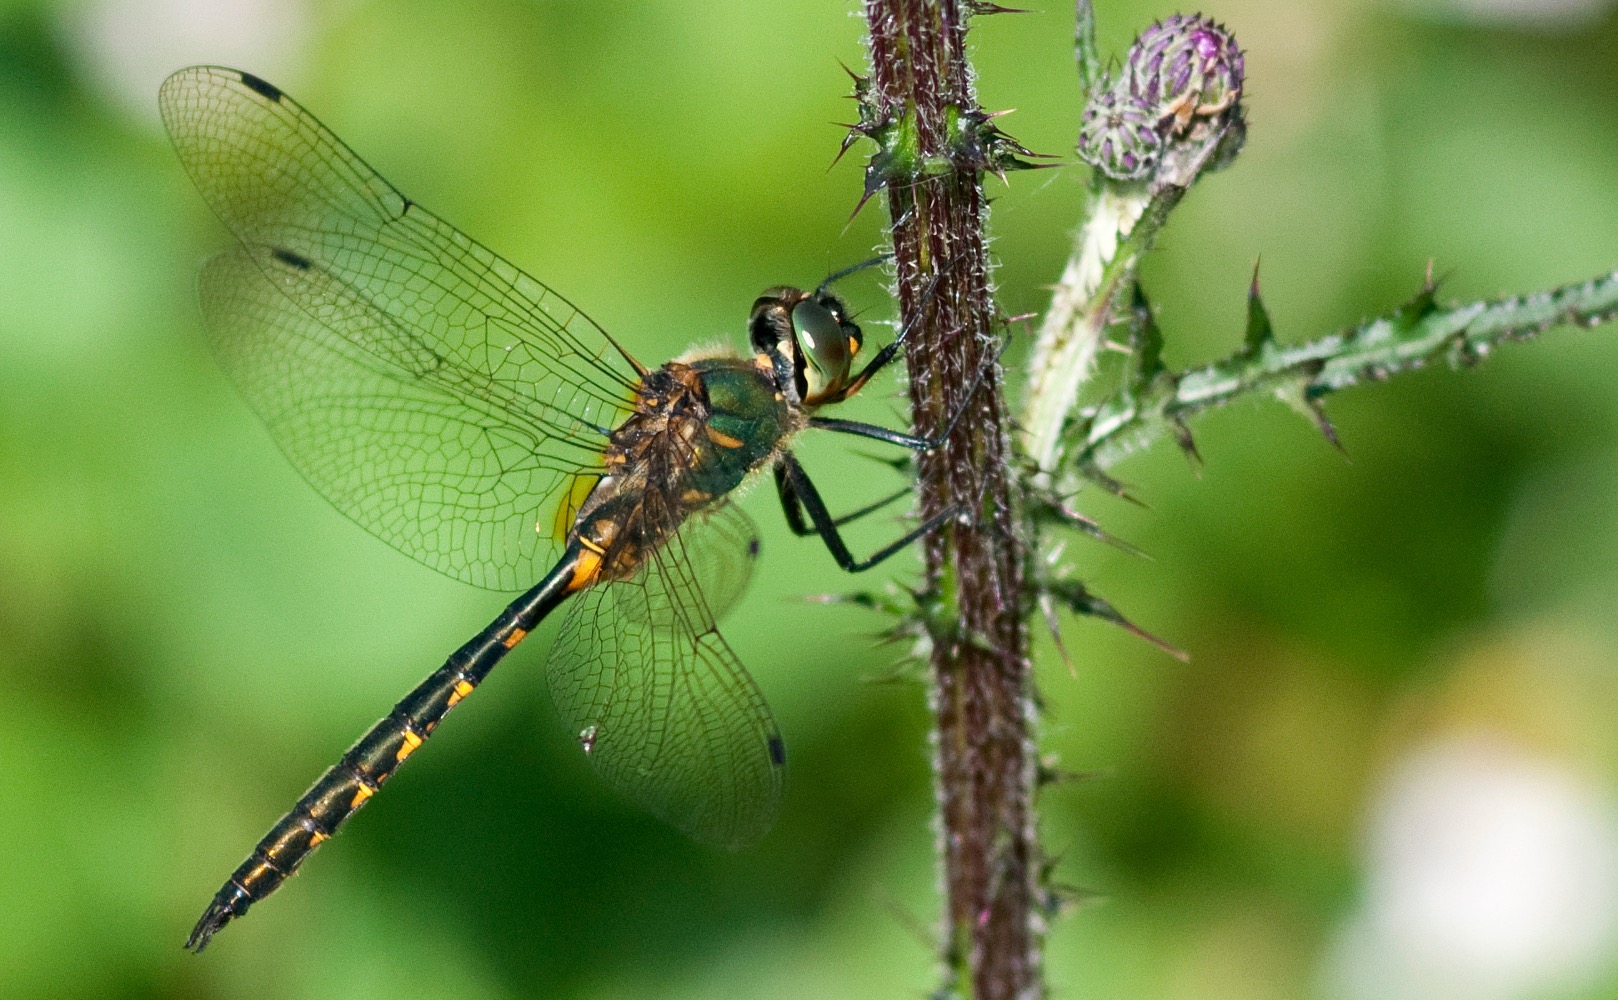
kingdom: Animalia
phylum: Arthropoda
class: Insecta
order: Odonata
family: Corduliidae
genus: Somatochlora
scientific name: Somatochlora flavomaculata
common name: Plettet smaragdlibel
